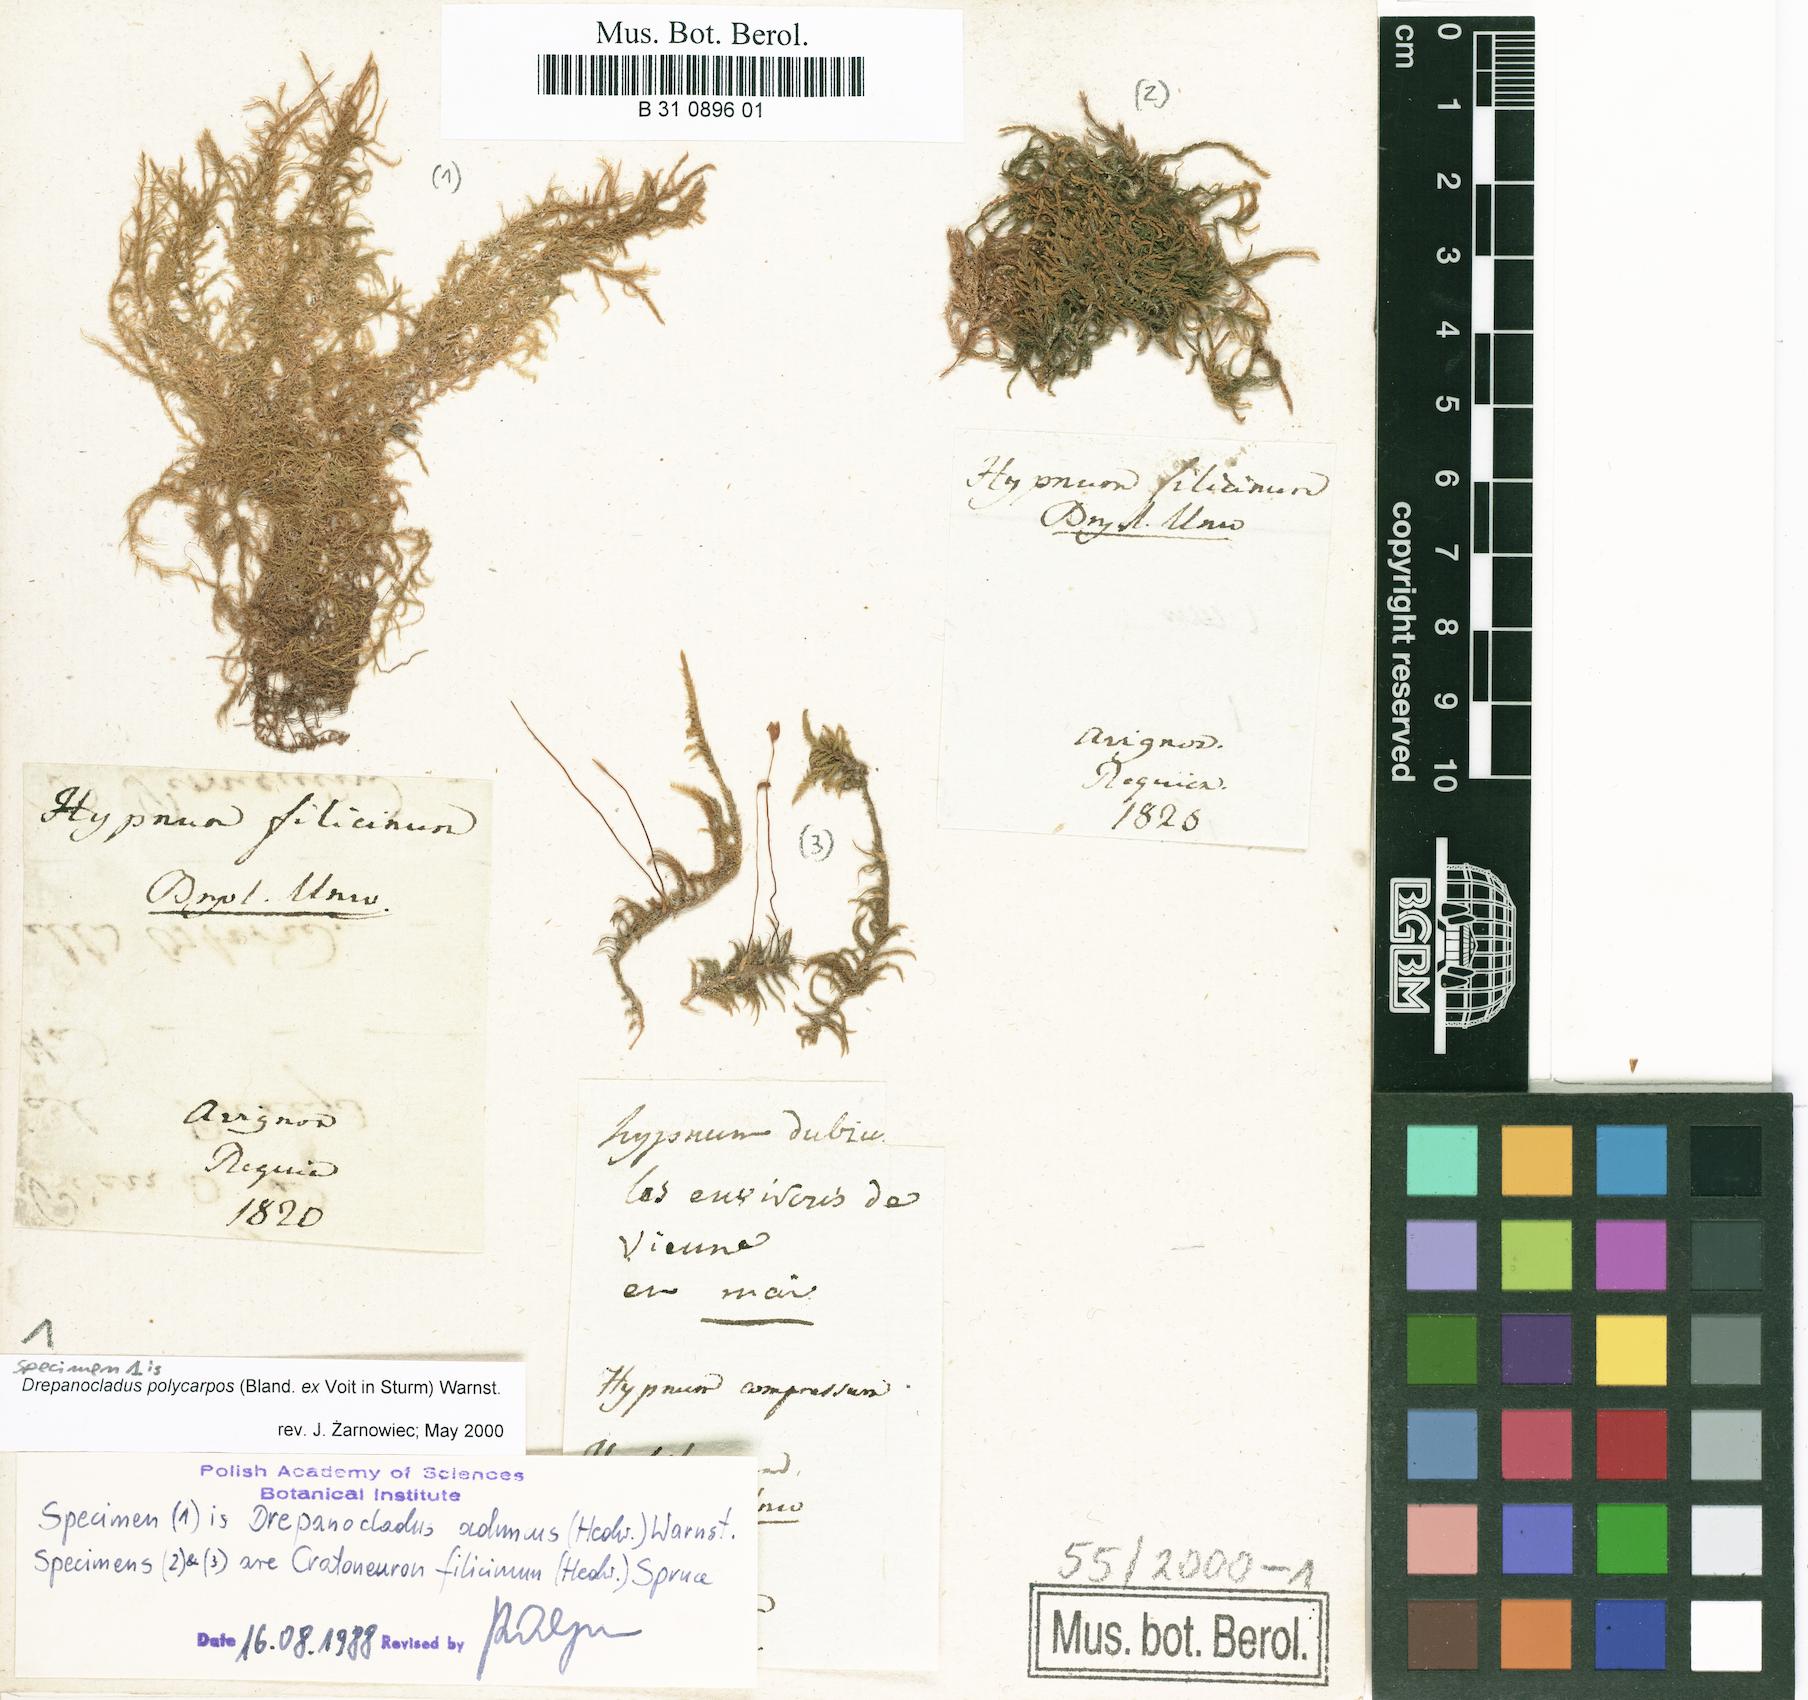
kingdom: Plantae
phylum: Bryophyta
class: Bryopsida
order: Hypnales
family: Amblystegiaceae
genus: Cratoneuron
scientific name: Cratoneuron filicinum
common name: Fern-leaved hook moss
